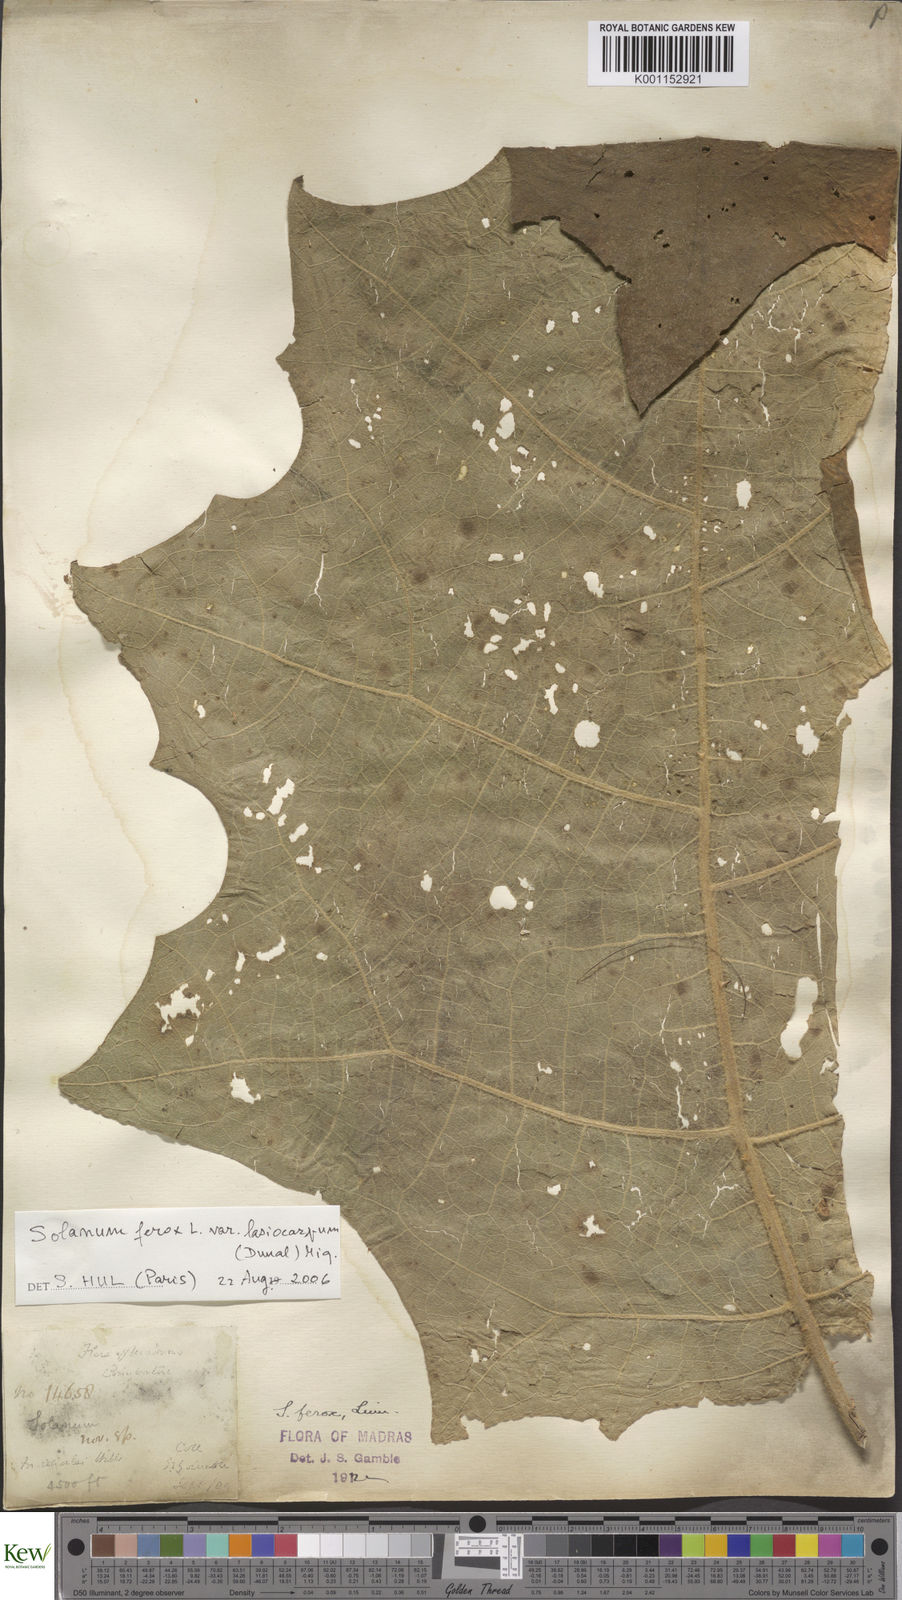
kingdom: Plantae
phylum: Tracheophyta
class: Magnoliopsida
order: Solanales
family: Solanaceae
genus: Solanum
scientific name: Solanum
